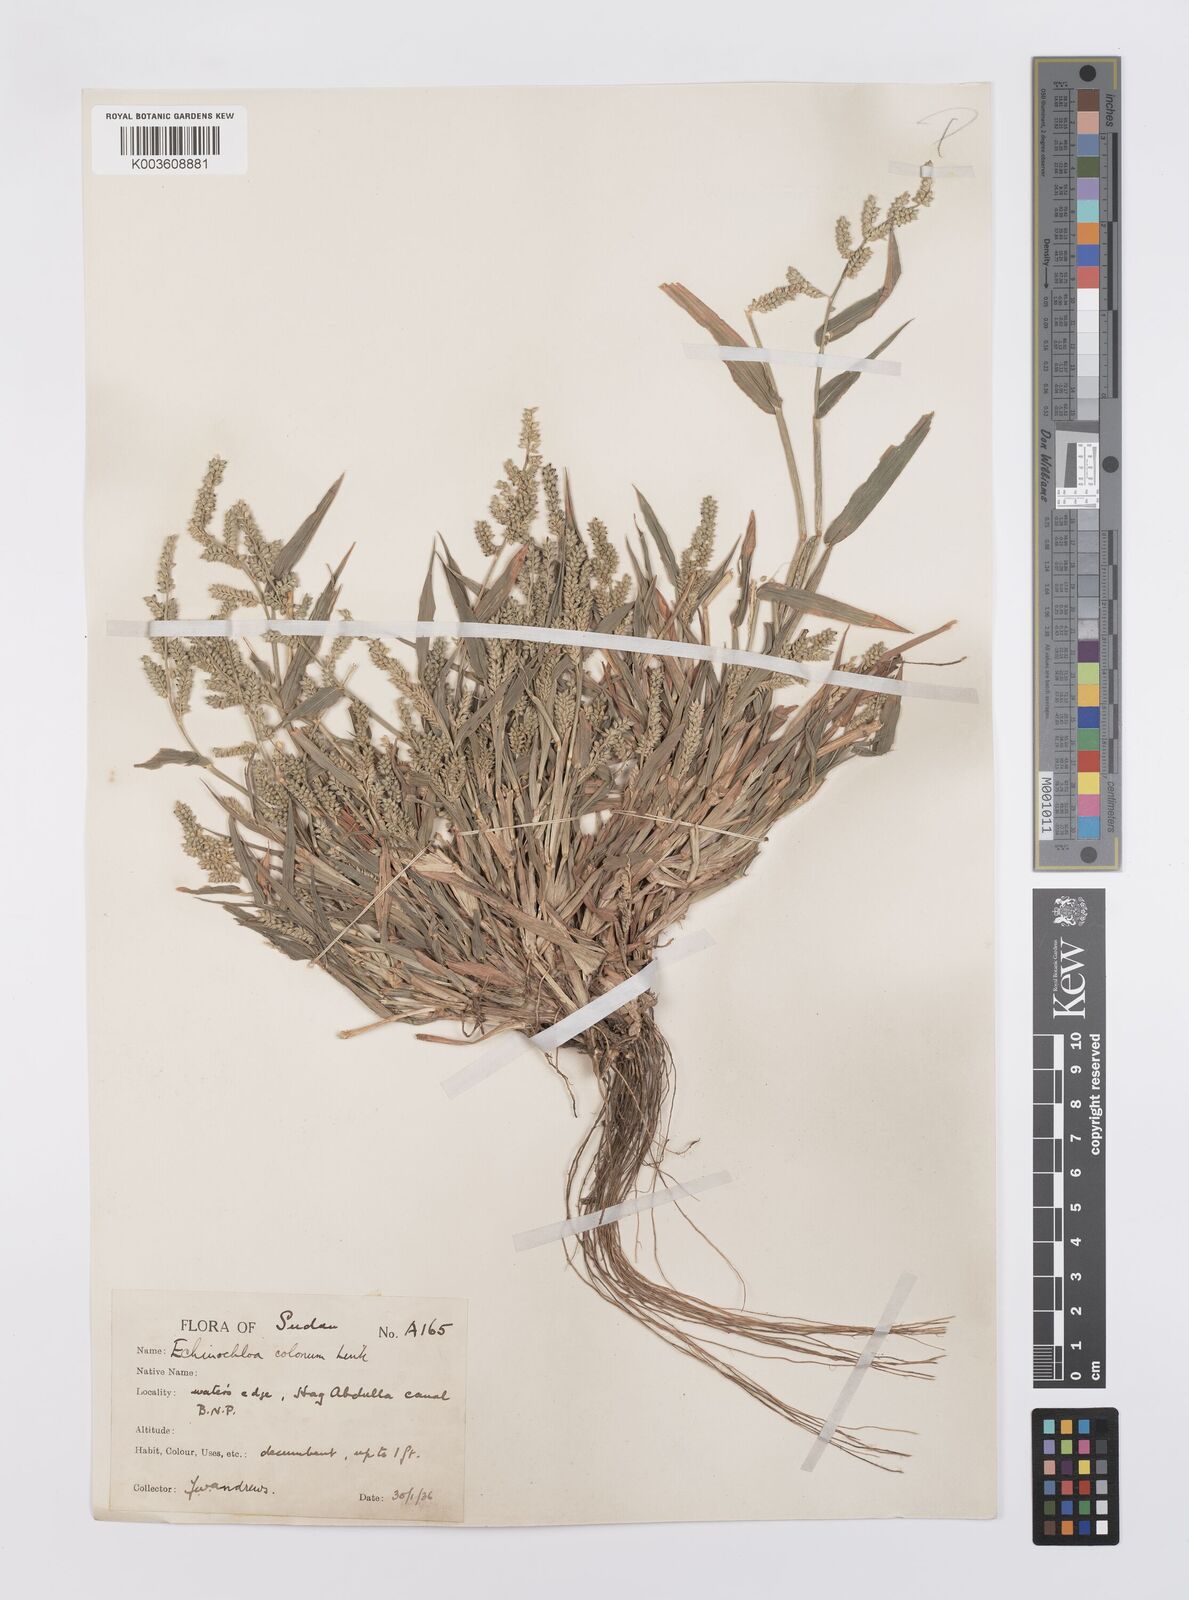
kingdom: Plantae
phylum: Tracheophyta
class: Liliopsida
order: Poales
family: Poaceae
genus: Echinochloa
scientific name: Echinochloa colonum
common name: Jungle rice
